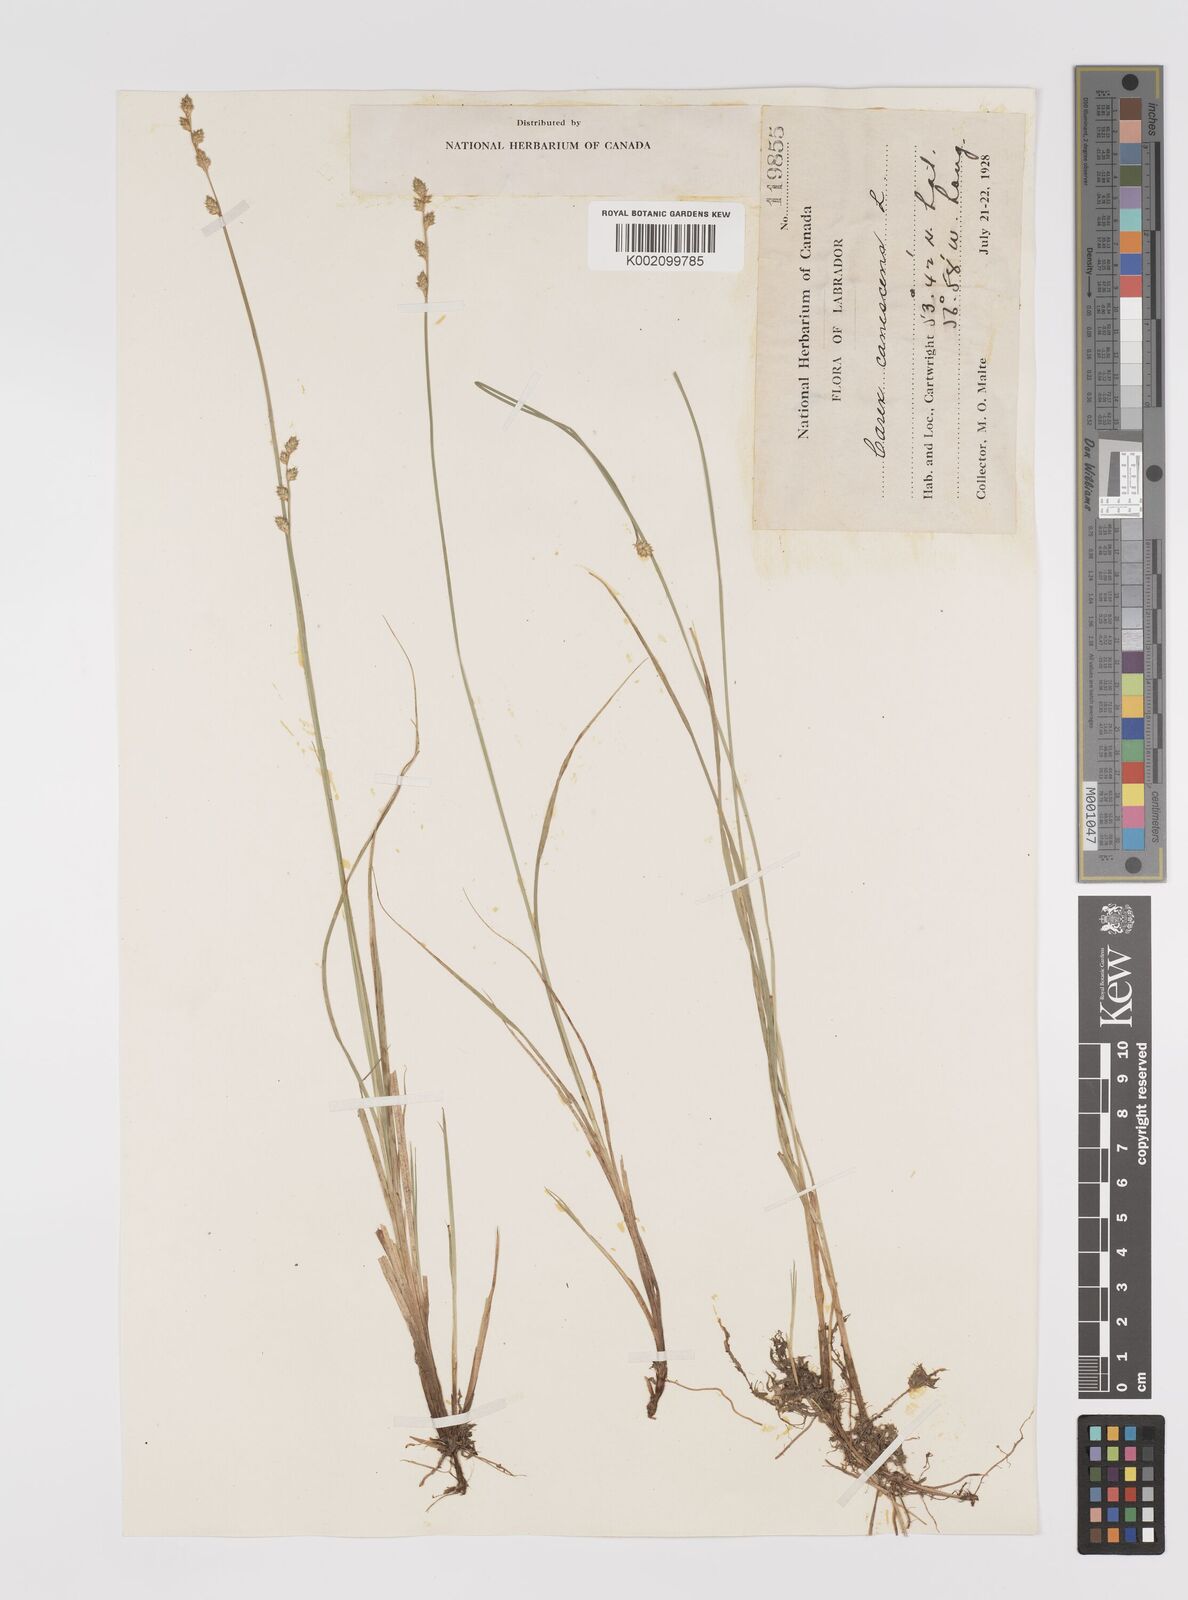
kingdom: Plantae
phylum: Tracheophyta
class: Liliopsida
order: Poales
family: Cyperaceae
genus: Carex
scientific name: Carex curta
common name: White sedge
